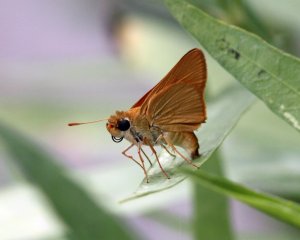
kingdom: Animalia
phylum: Arthropoda
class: Insecta
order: Lepidoptera
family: Hesperiidae
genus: Atrytone
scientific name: Atrytone delaware
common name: Delaware Skipper
